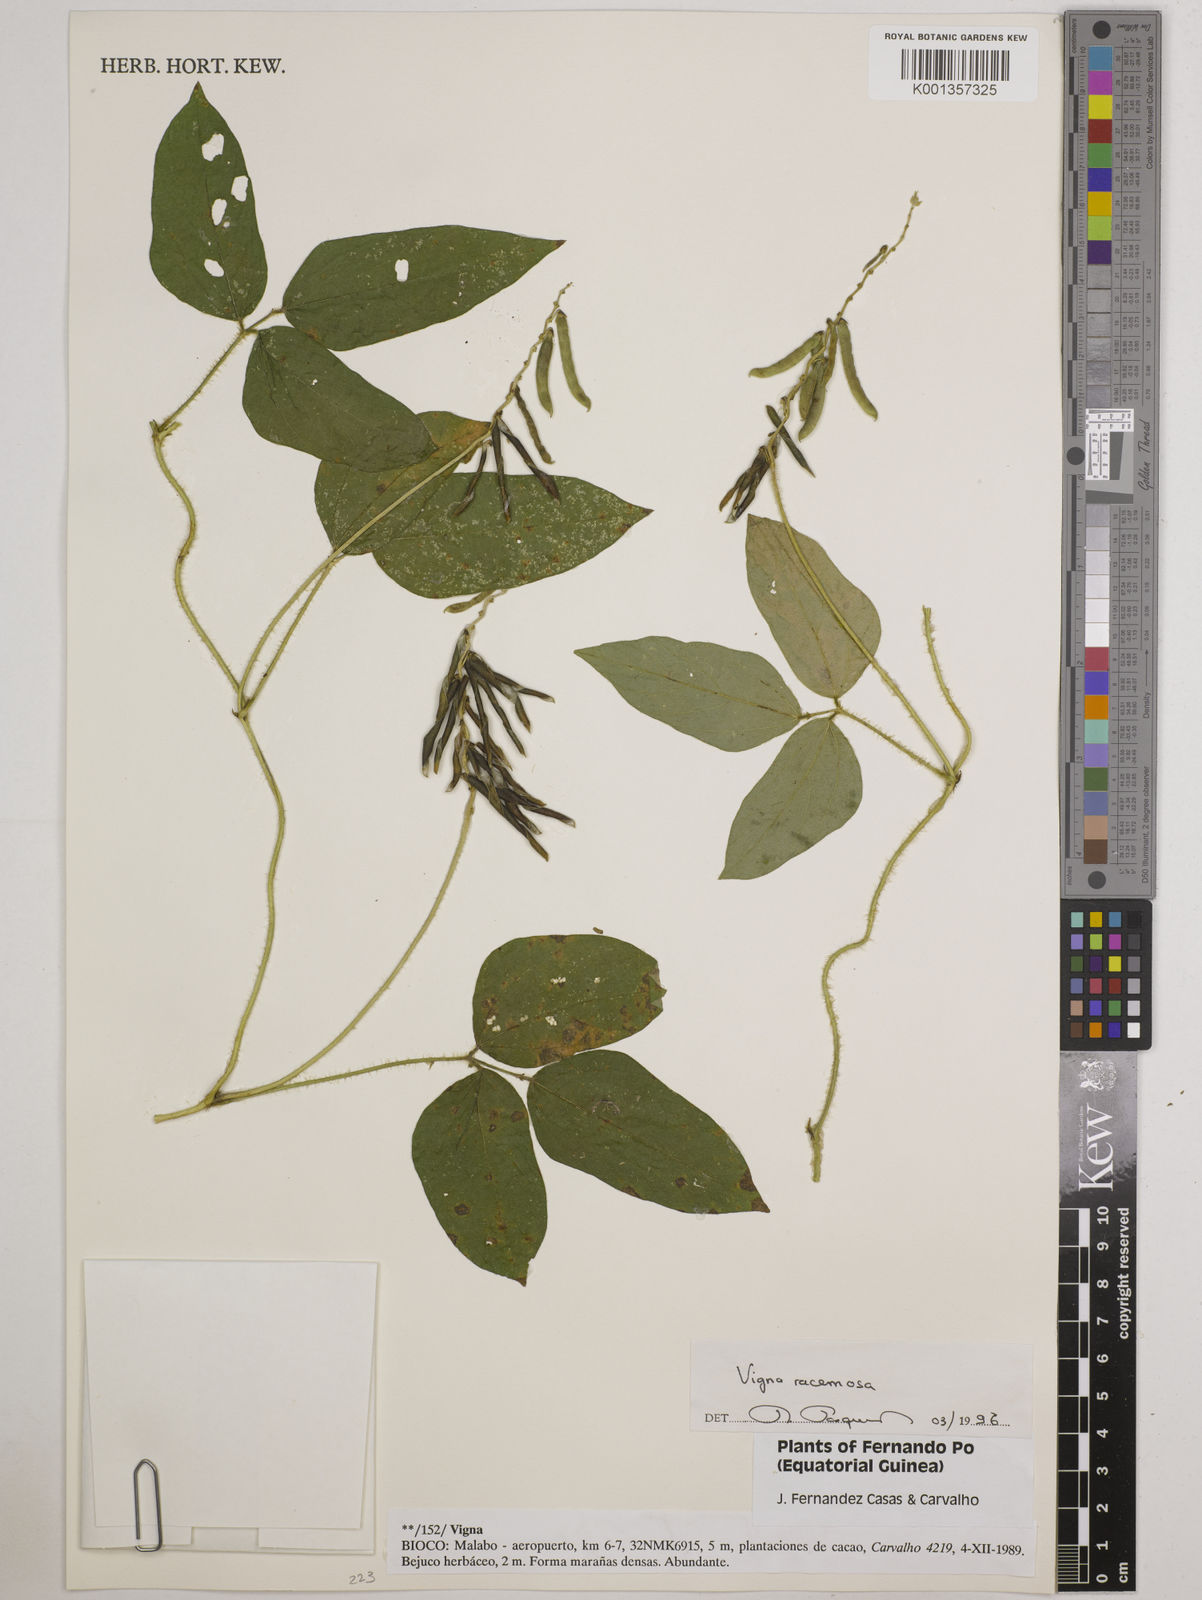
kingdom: Plantae
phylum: Tracheophyta
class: Magnoliopsida
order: Fabales
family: Fabaceae
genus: Vigna
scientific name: Vigna racemosa
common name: Beans not eaten
